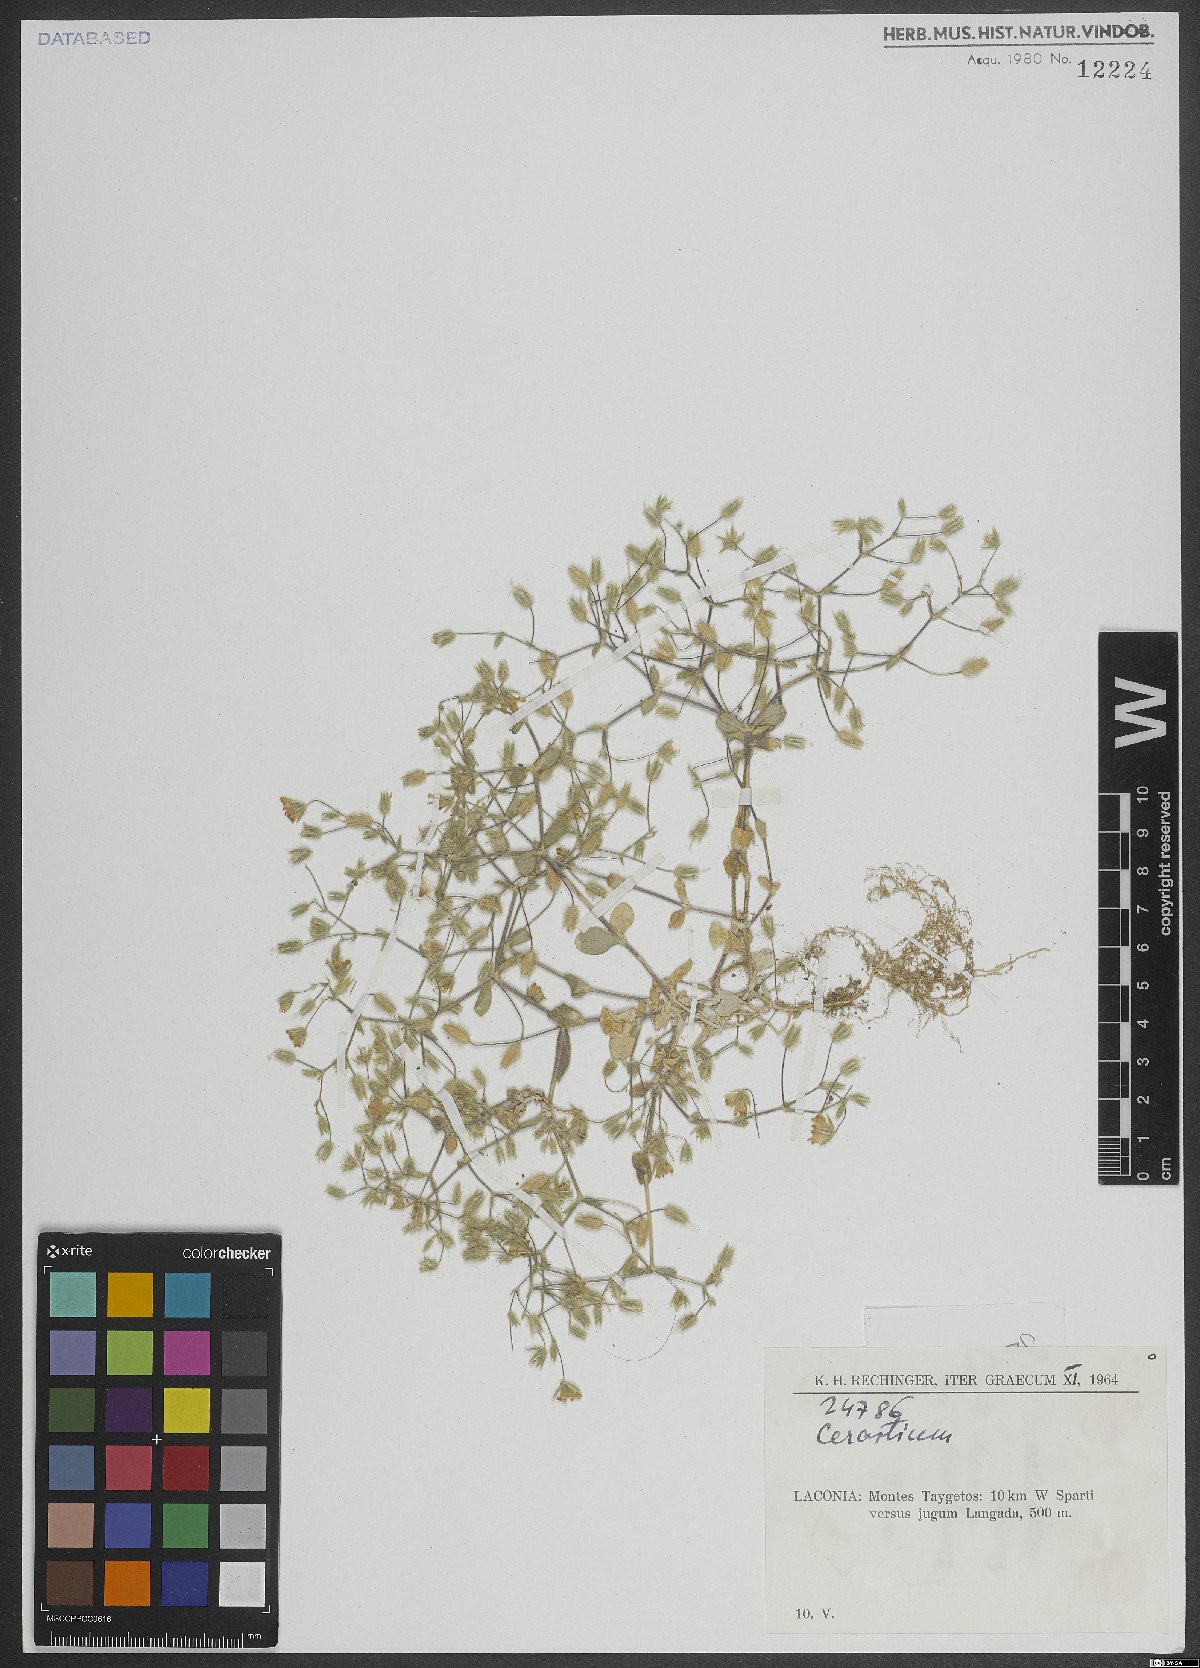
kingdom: Plantae
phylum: Tracheophyta
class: Magnoliopsida
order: Caryophyllales
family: Caryophyllaceae
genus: Cerastium
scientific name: Cerastium
